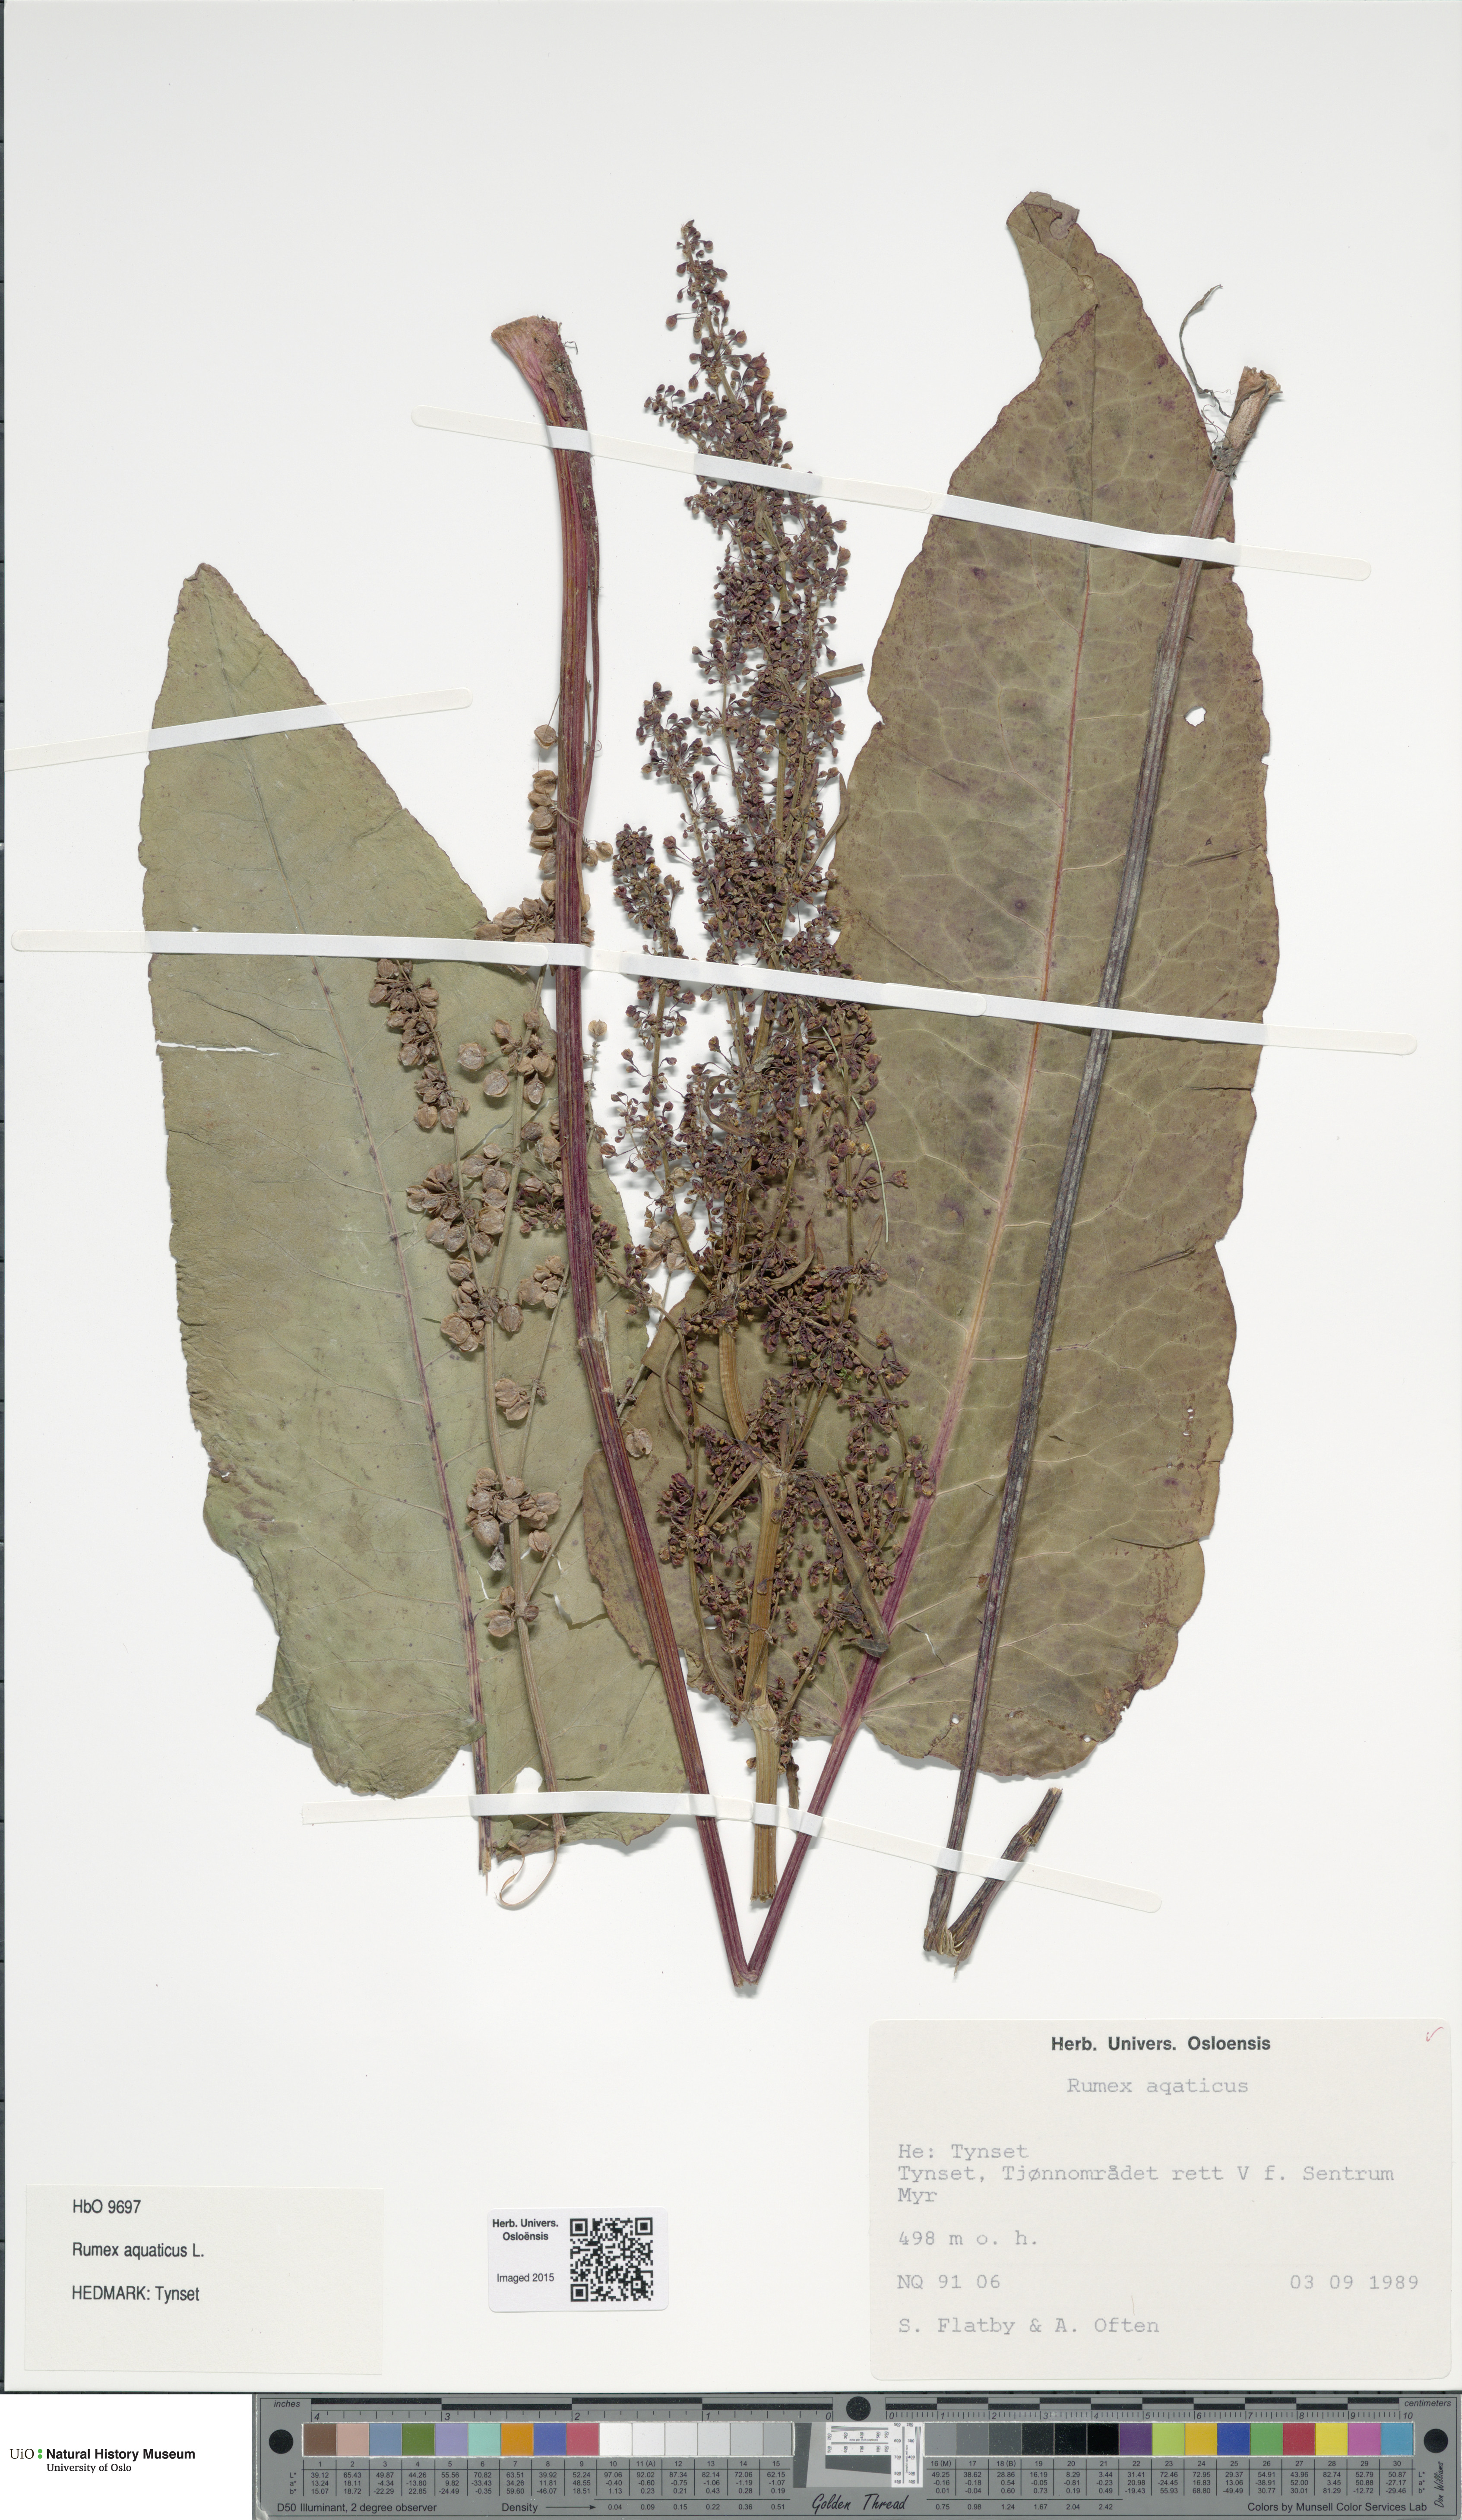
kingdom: Plantae
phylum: Tracheophyta
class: Magnoliopsida
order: Caryophyllales
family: Polygonaceae
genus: Rumex
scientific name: Rumex aquaticus
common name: Scottish dock
